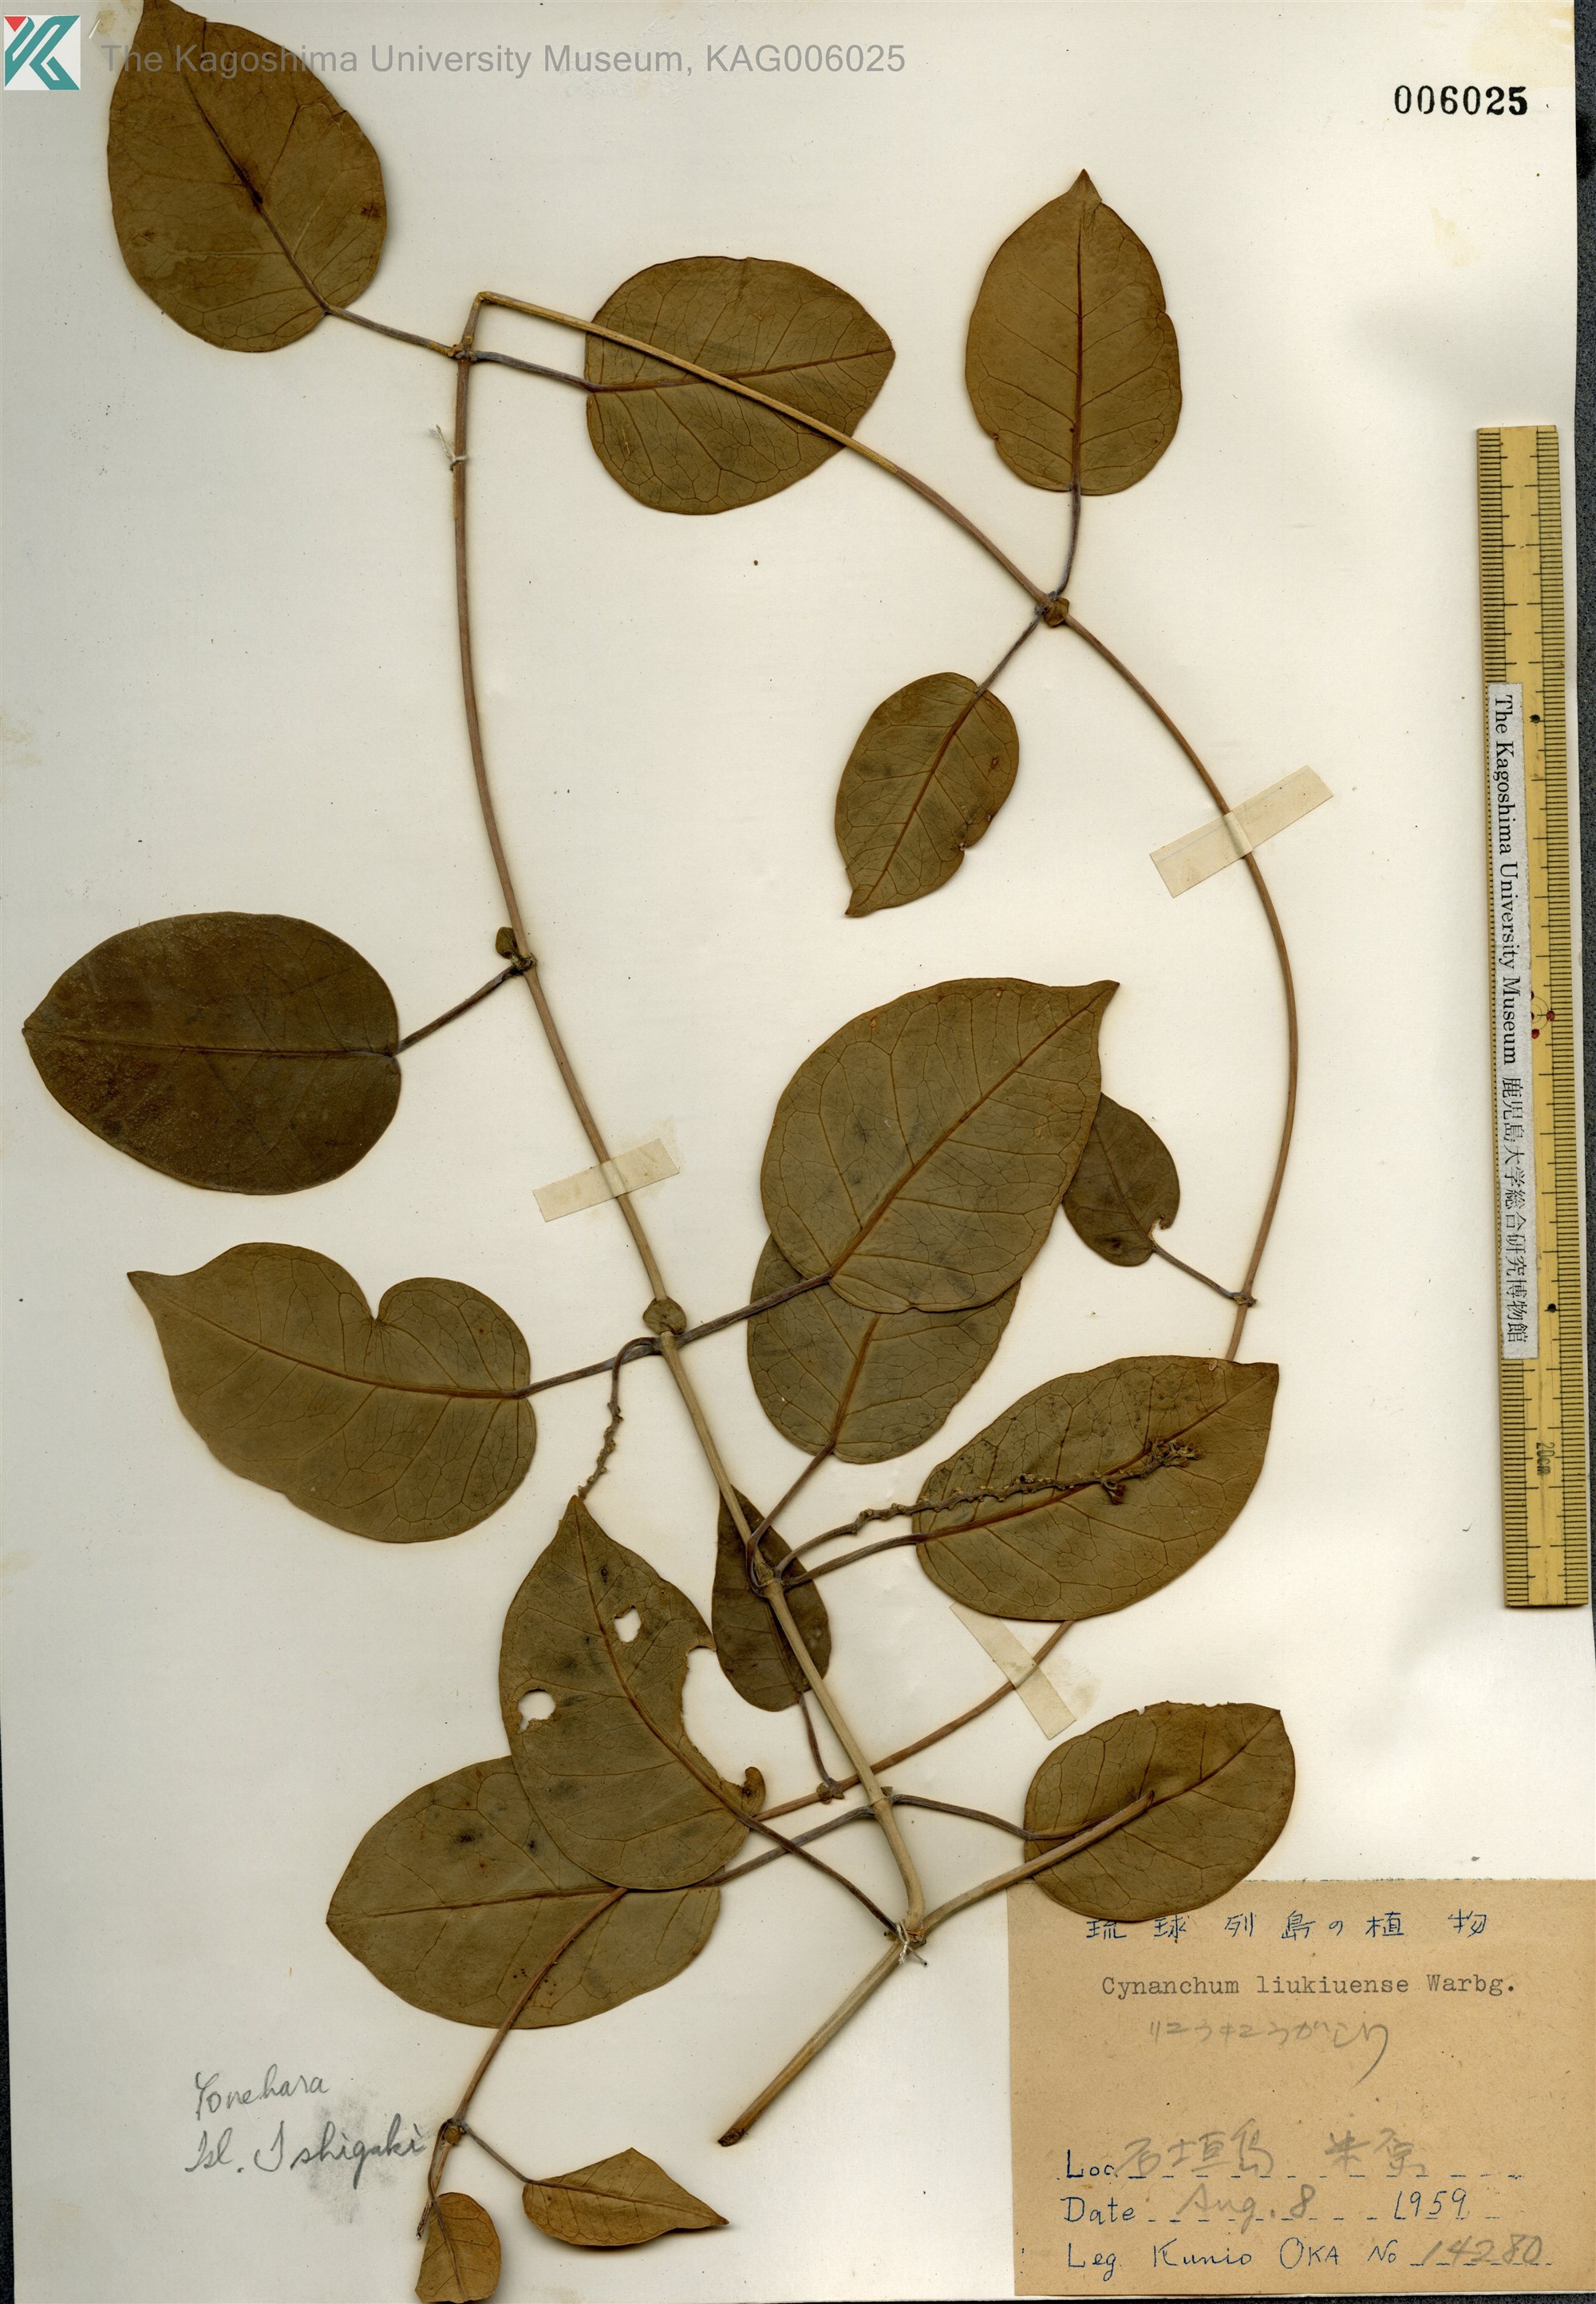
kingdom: Plantae
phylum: Tracheophyta
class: Magnoliopsida
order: Gentianales
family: Apocynaceae
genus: Cynanchum
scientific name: Cynanchum liukiuense
